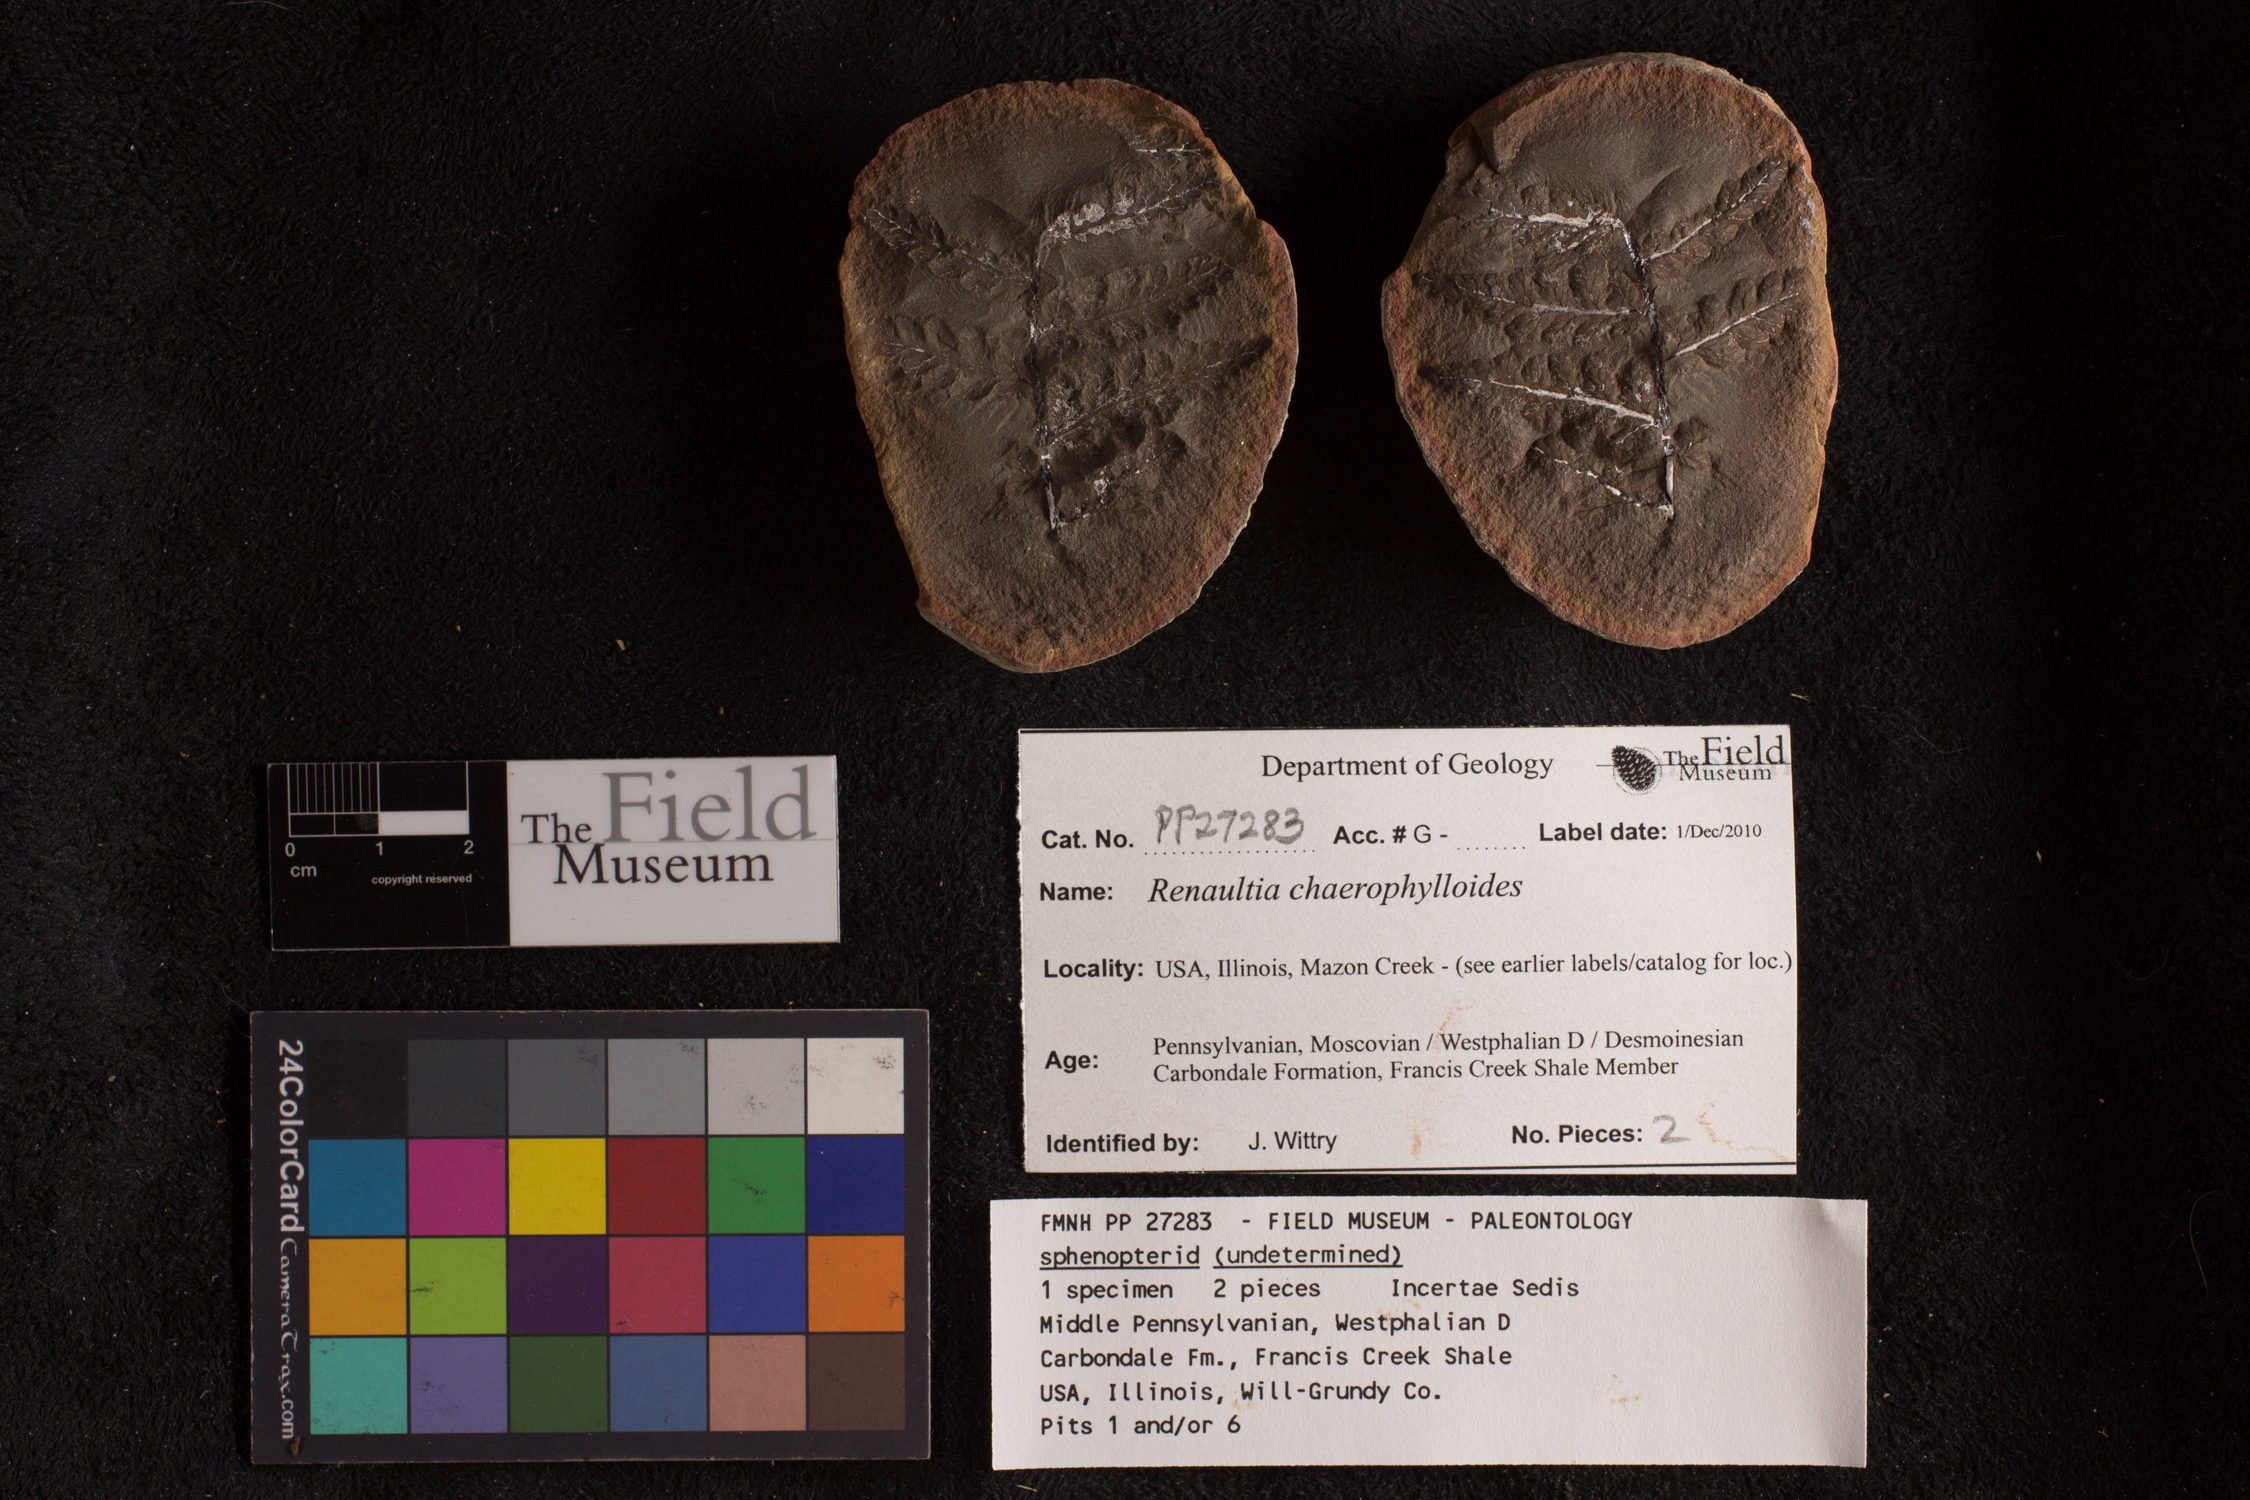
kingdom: Plantae
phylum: Tracheophyta
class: Polypodiopsida
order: Marattiales
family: Marattiaceae
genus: Renaultia
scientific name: Renaultia chaerophylloides
